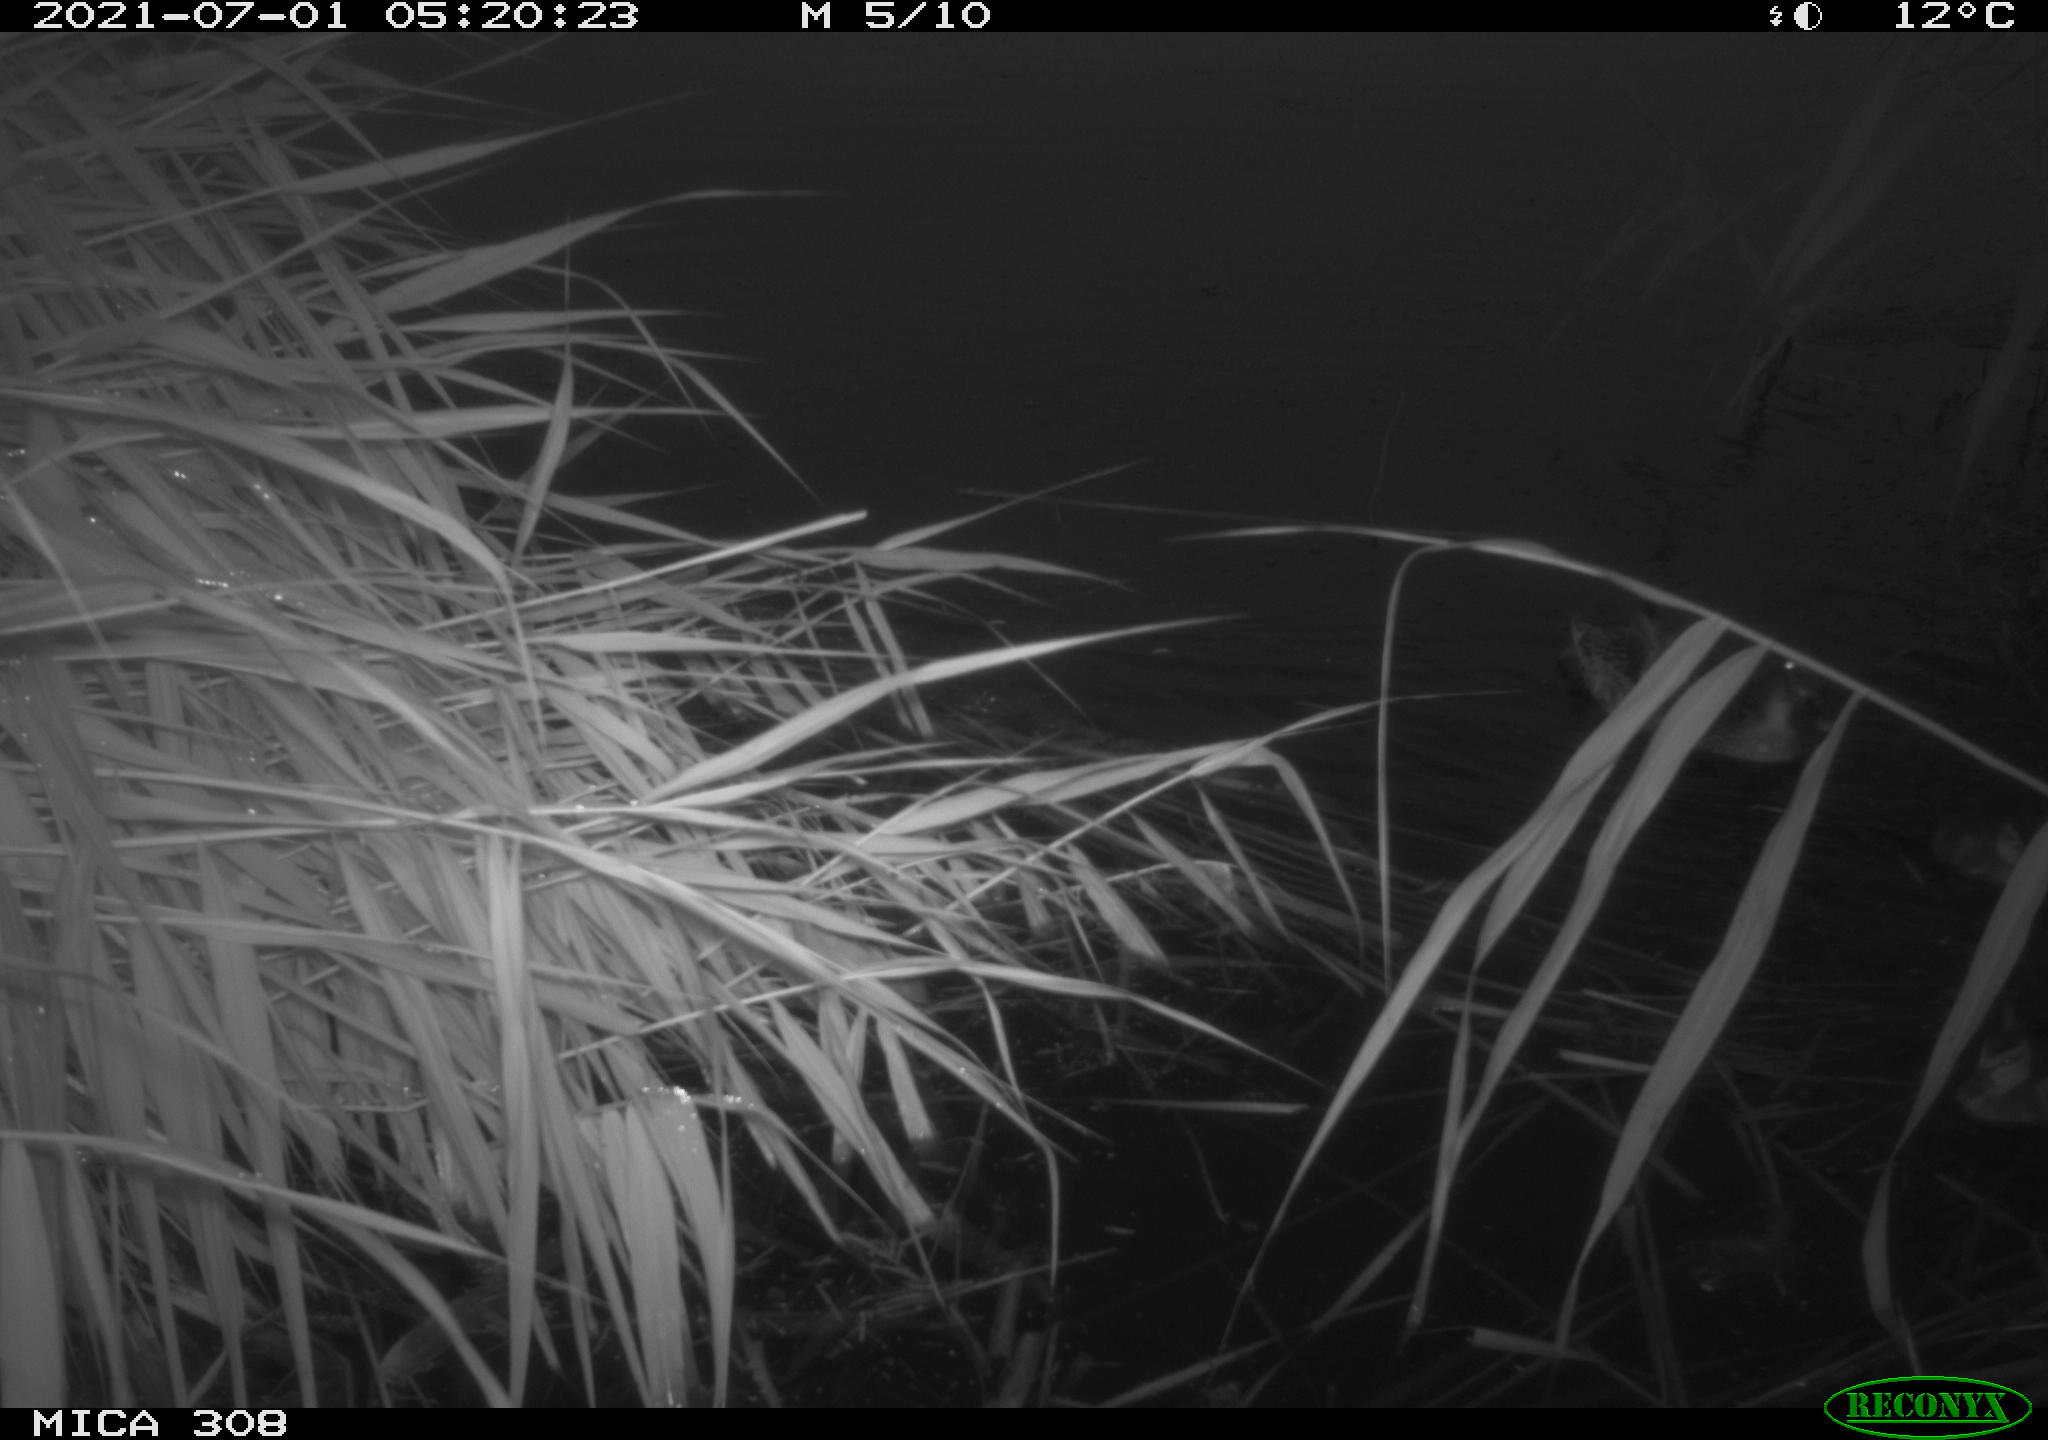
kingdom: Animalia
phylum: Chordata
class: Aves
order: Anseriformes
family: Anatidae
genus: Anas
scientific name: Anas platyrhynchos
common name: Mallard
